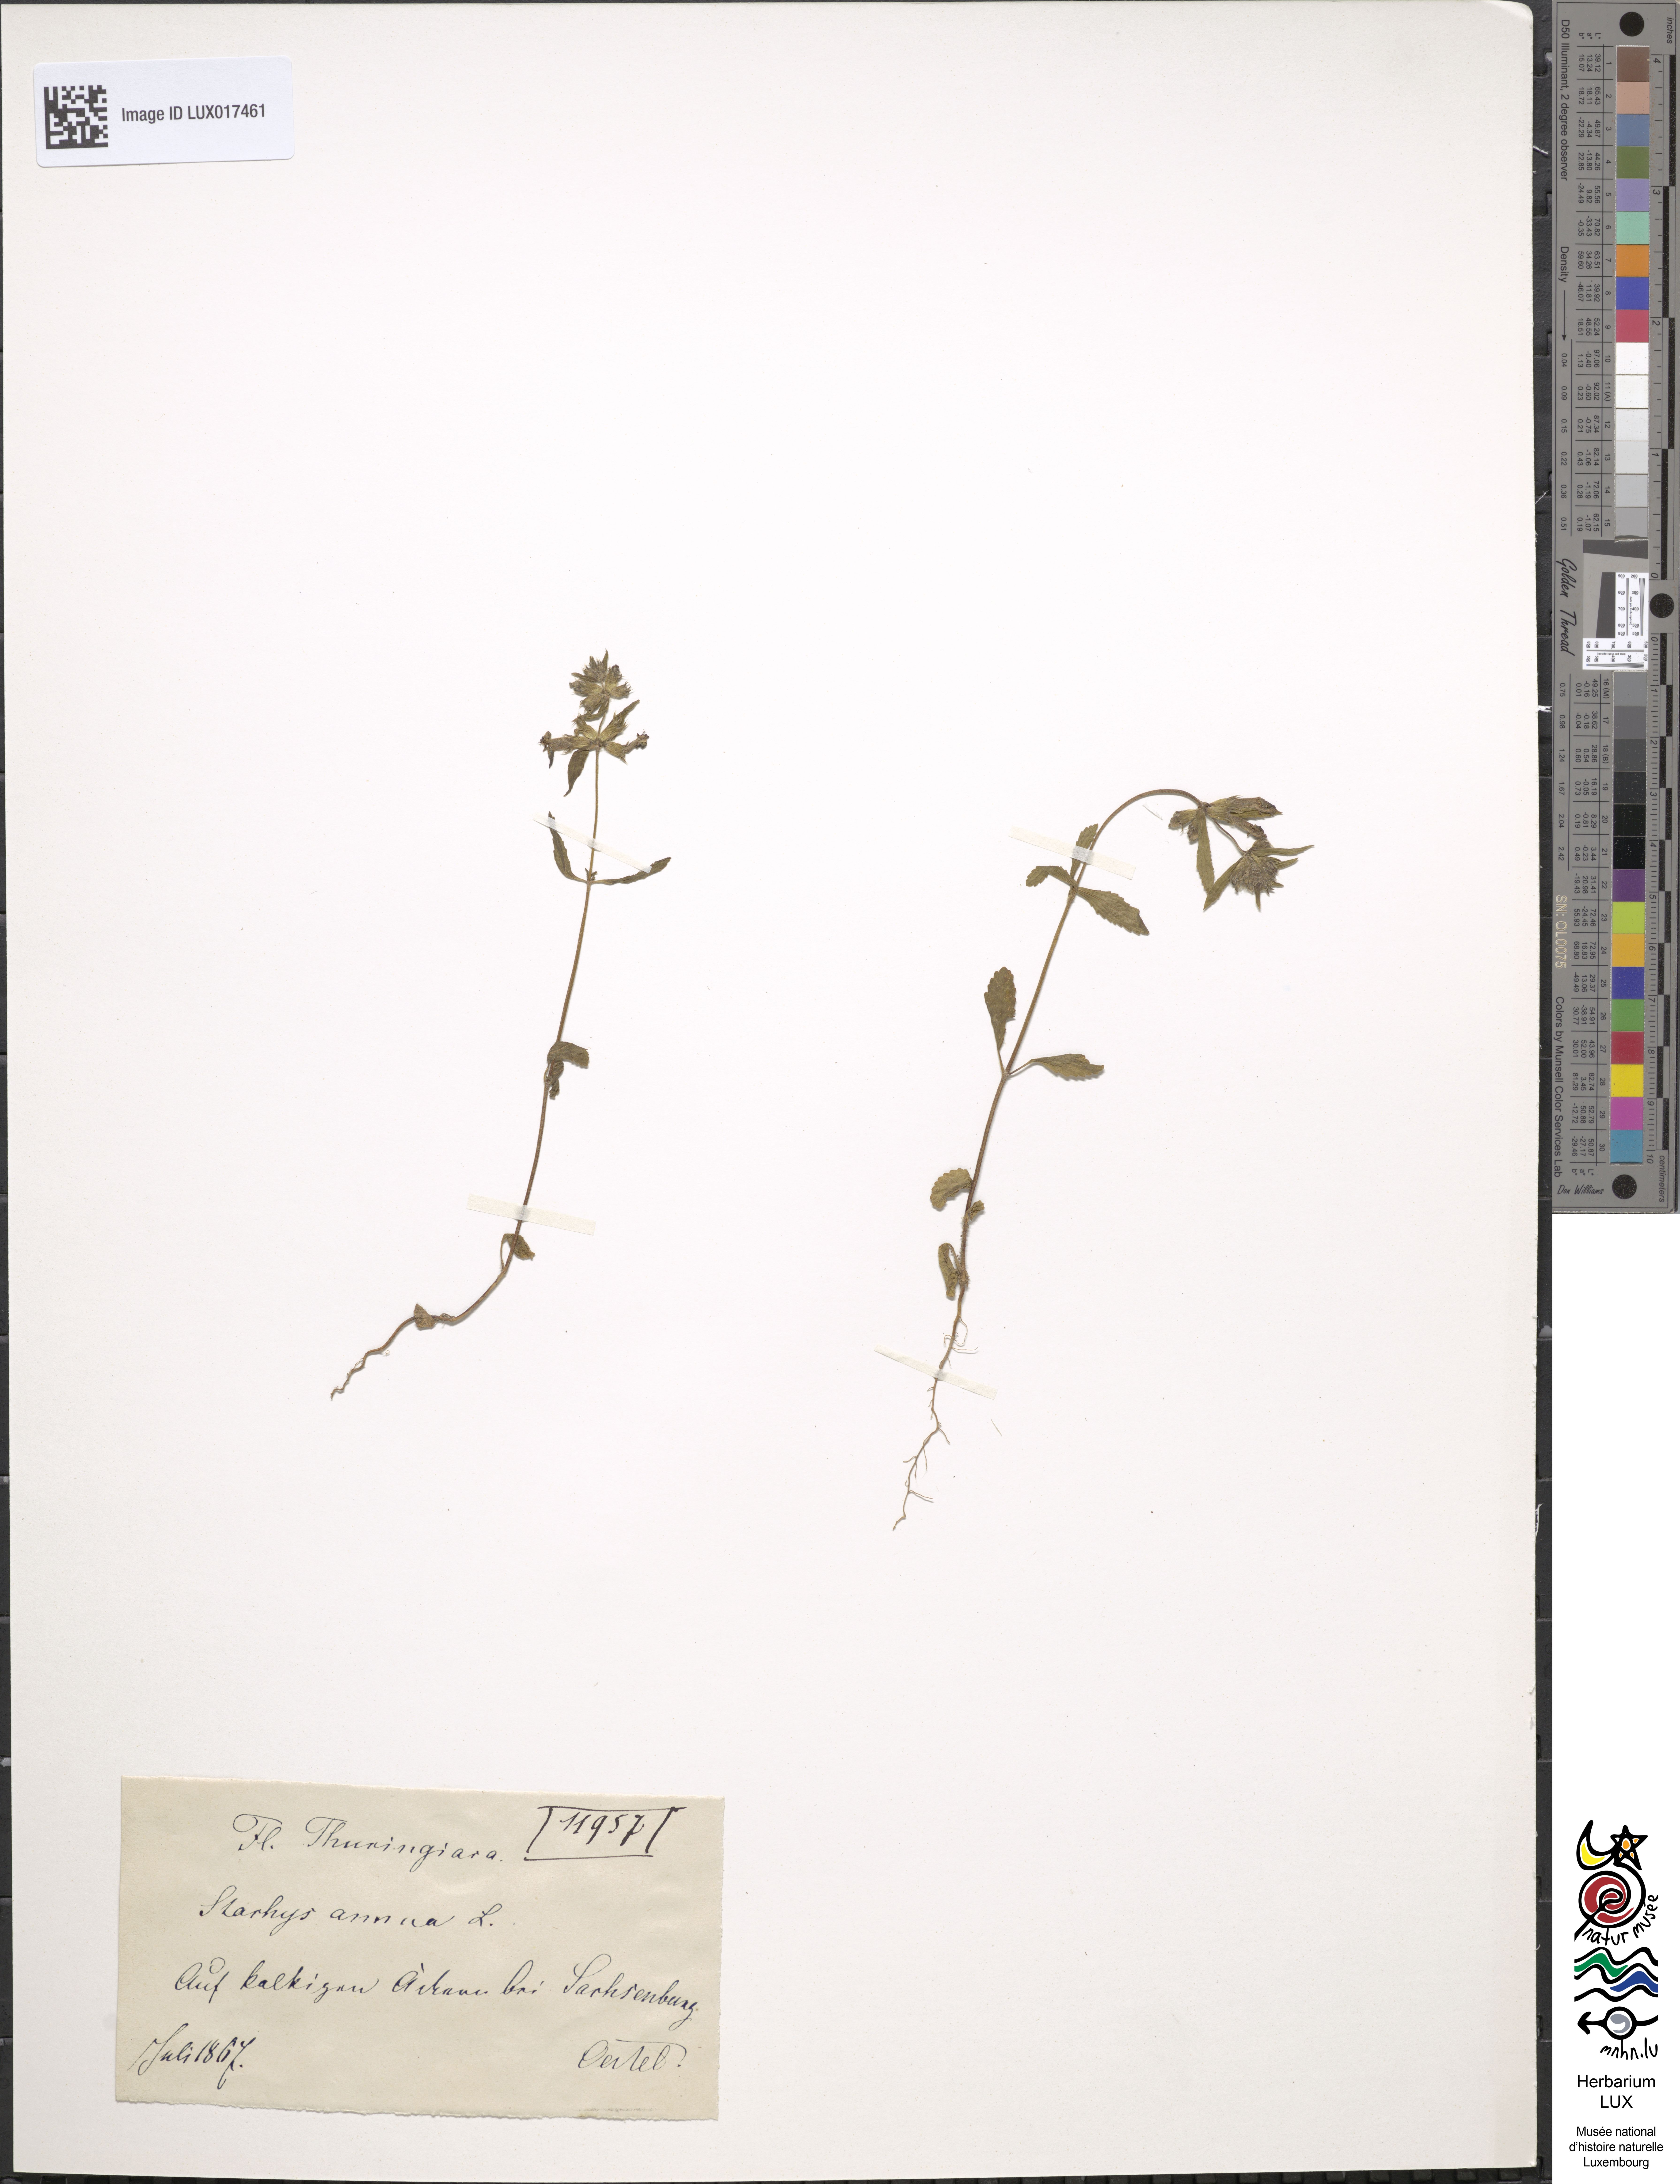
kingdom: Plantae
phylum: Tracheophyta
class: Magnoliopsida
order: Lamiales
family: Lamiaceae
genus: Stachys
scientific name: Stachys annua
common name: Annual yellow-woundwort
